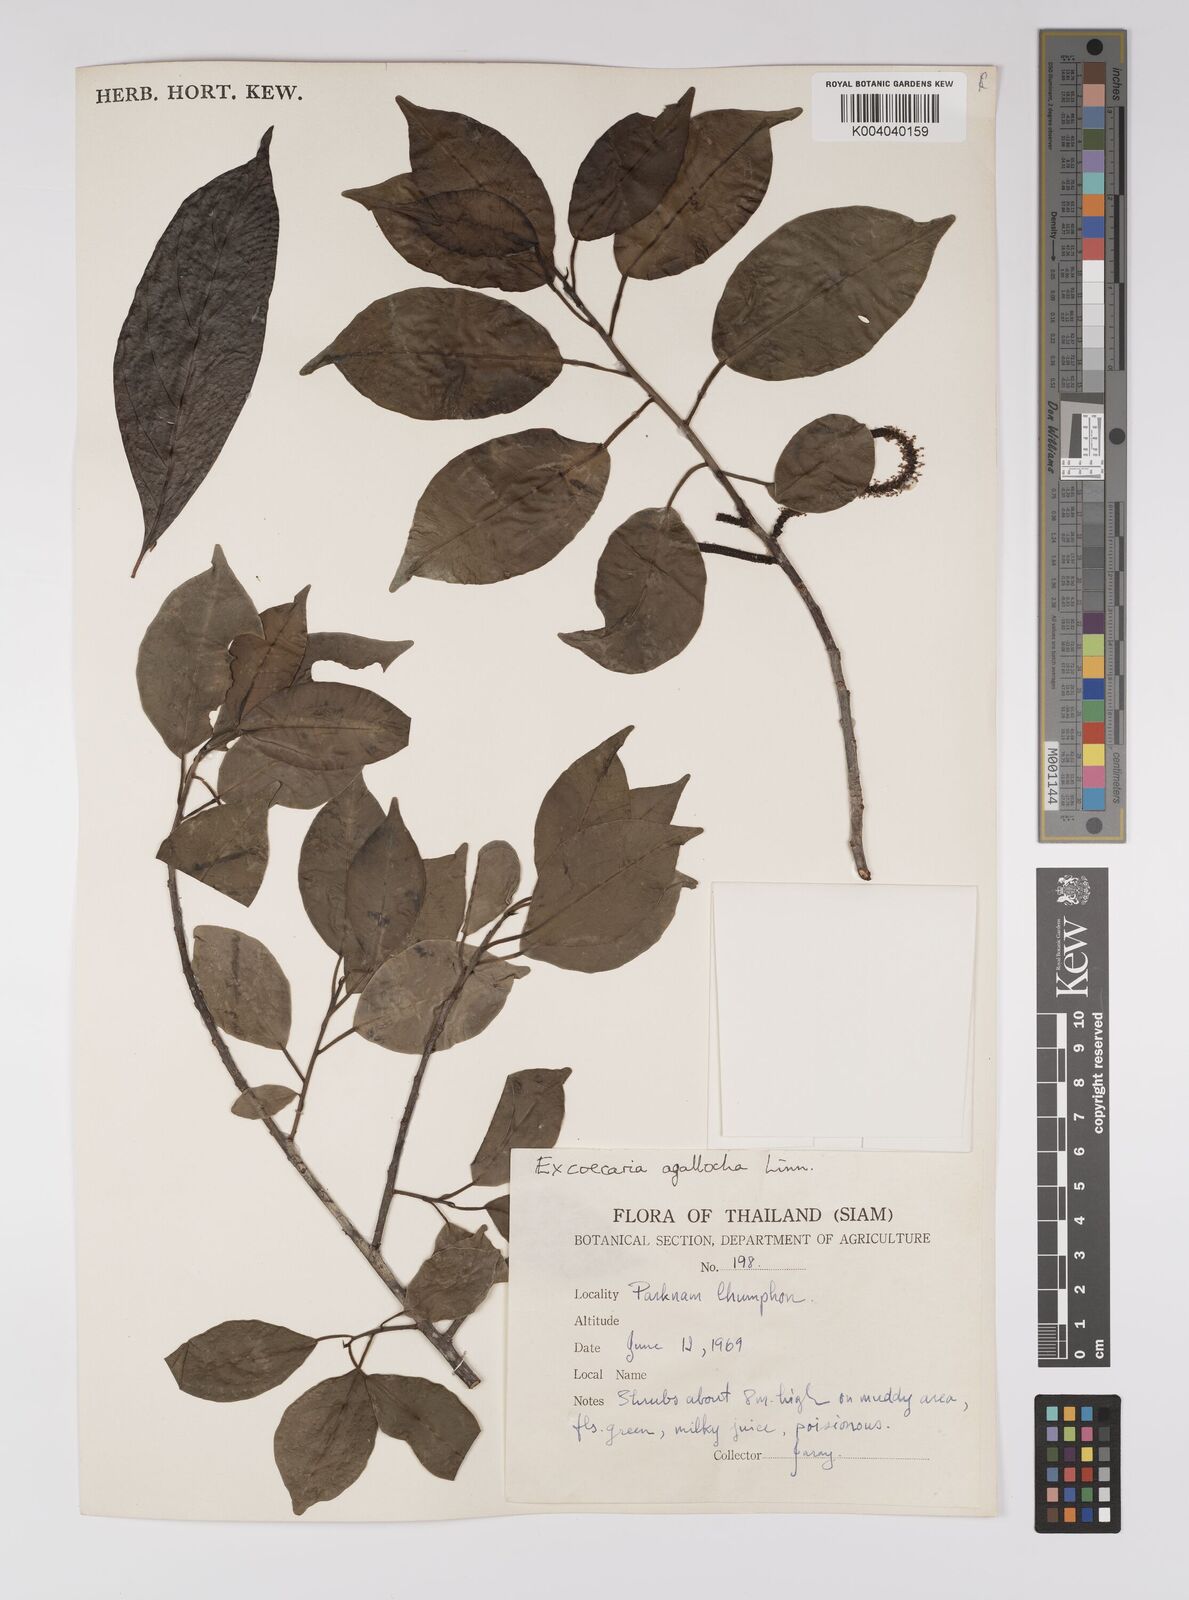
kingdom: Plantae
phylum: Tracheophyta
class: Magnoliopsida
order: Malpighiales
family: Euphorbiaceae
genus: Excoecaria
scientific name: Excoecaria agallocha
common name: River poisontree
